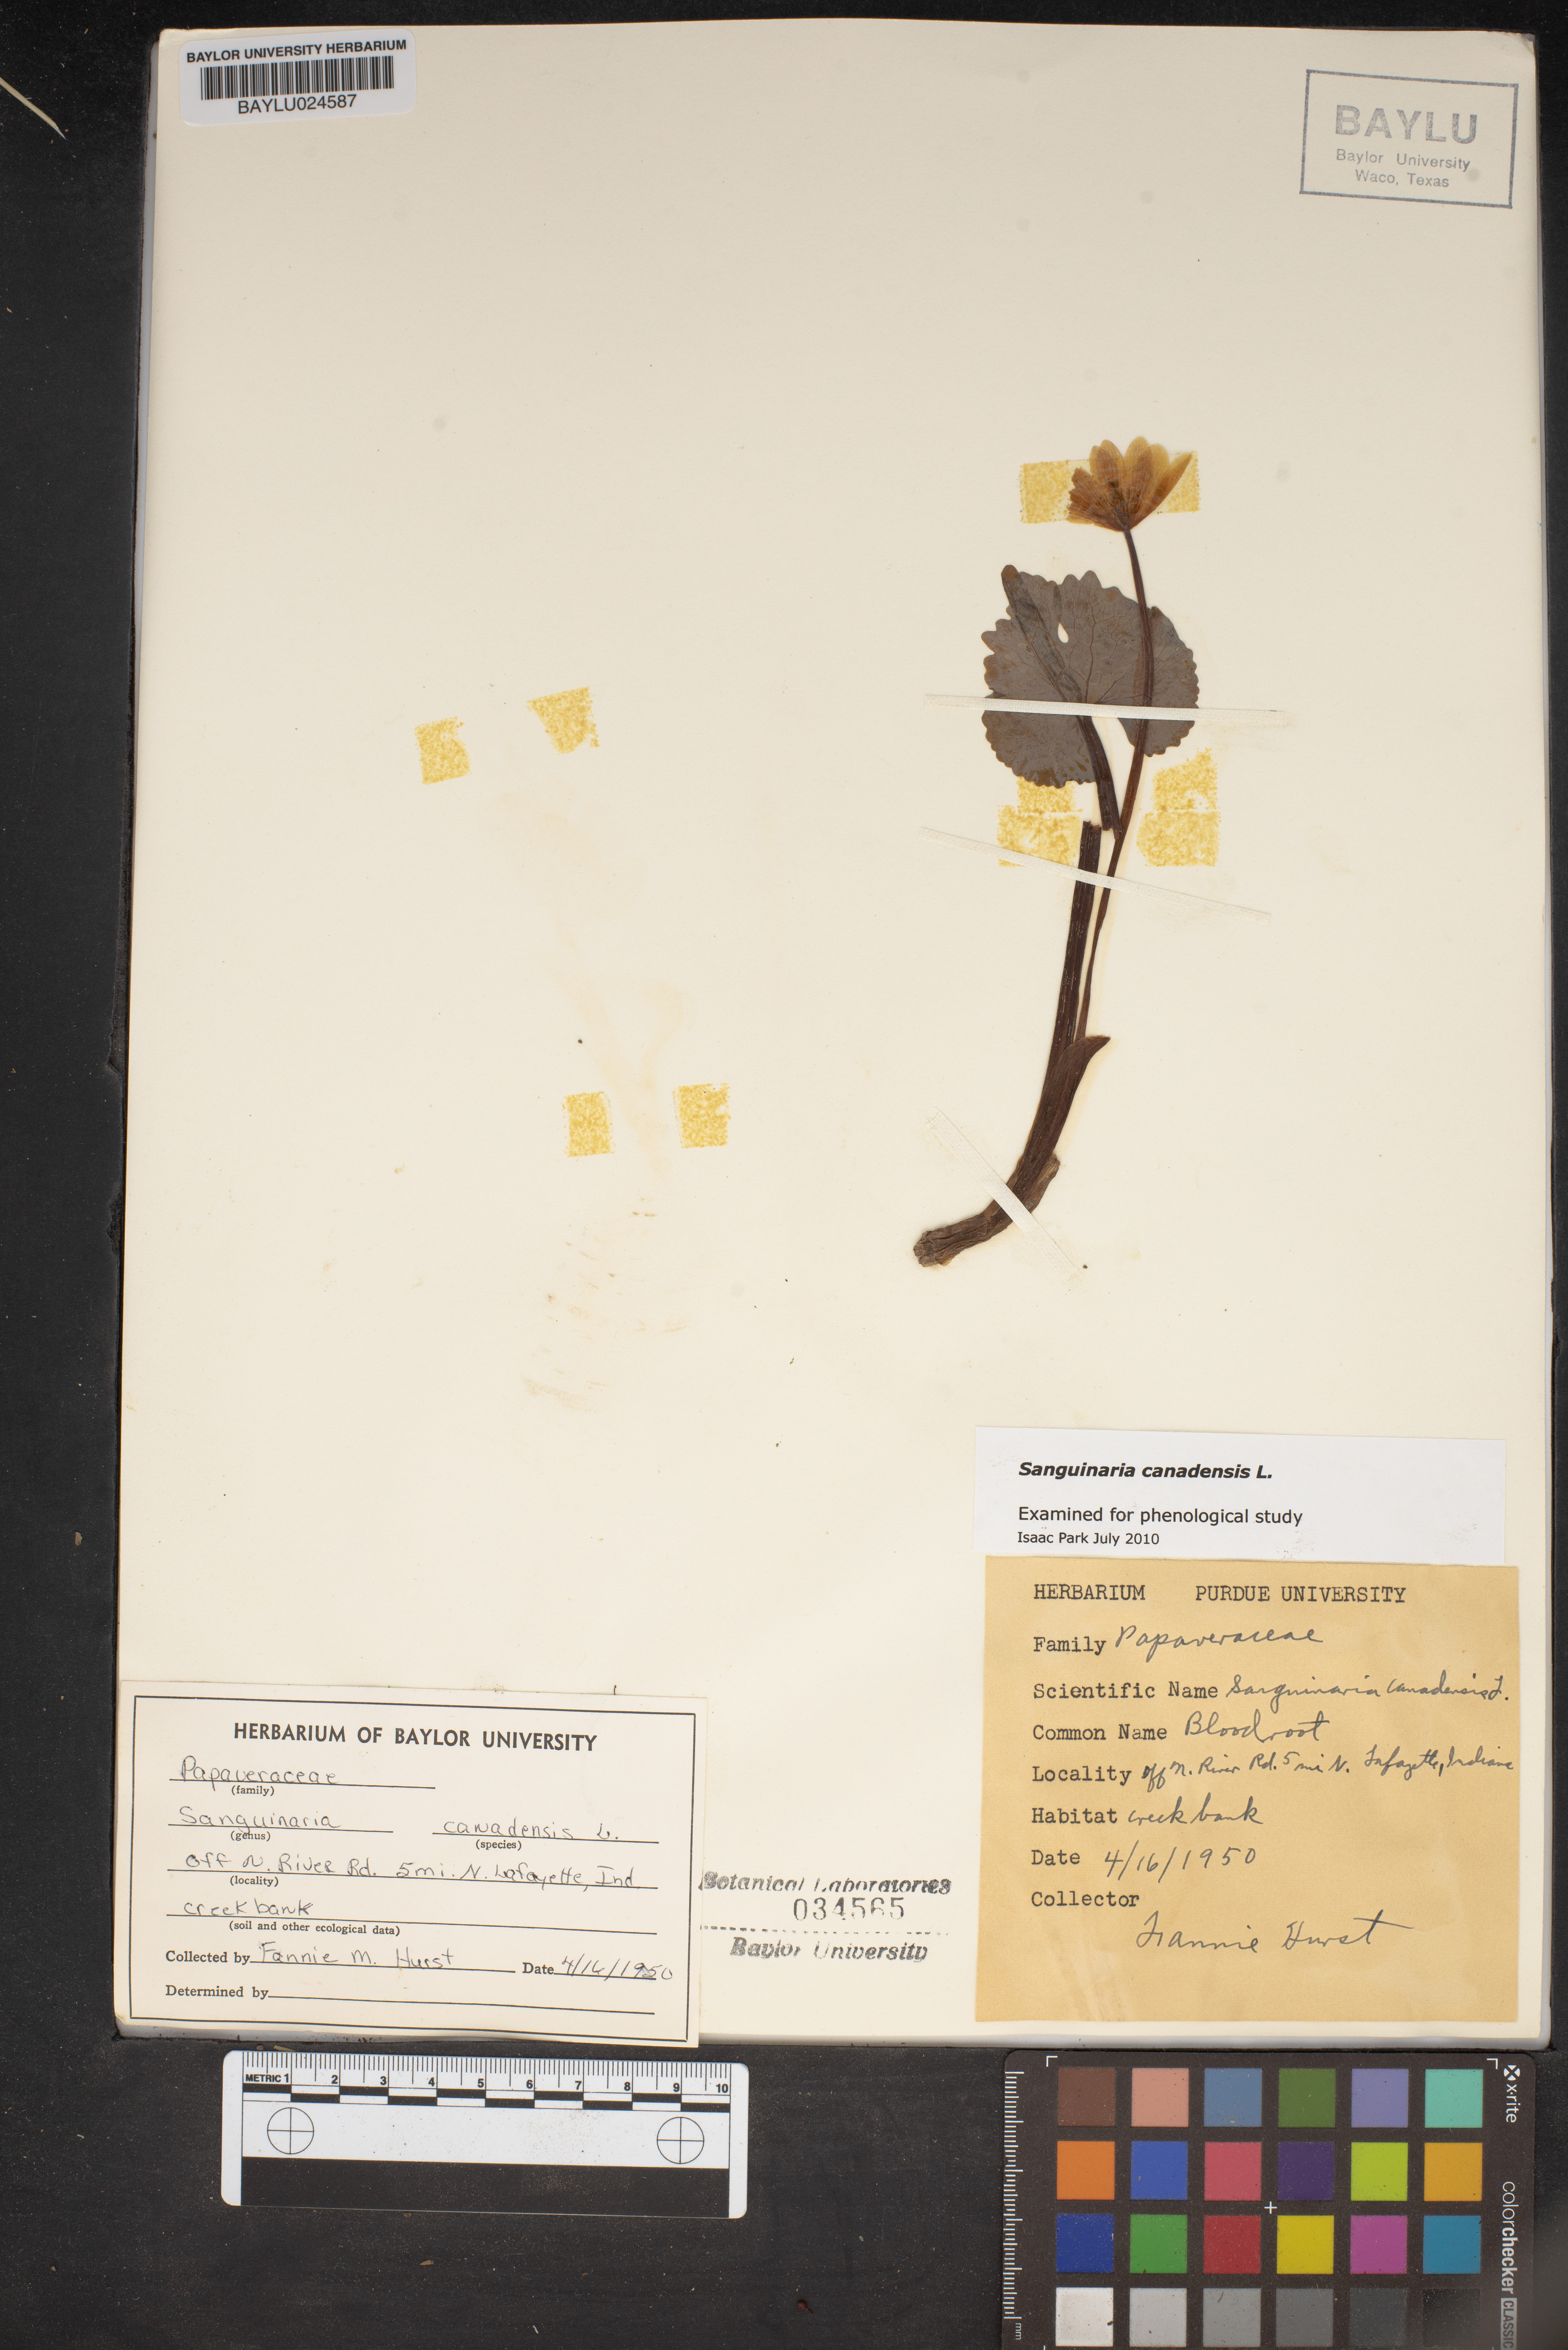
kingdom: Plantae
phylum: Tracheophyta
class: Magnoliopsida
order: Ranunculales
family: Papaveraceae
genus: Sanguinaria
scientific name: Sanguinaria canadensis
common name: Bloodroot
